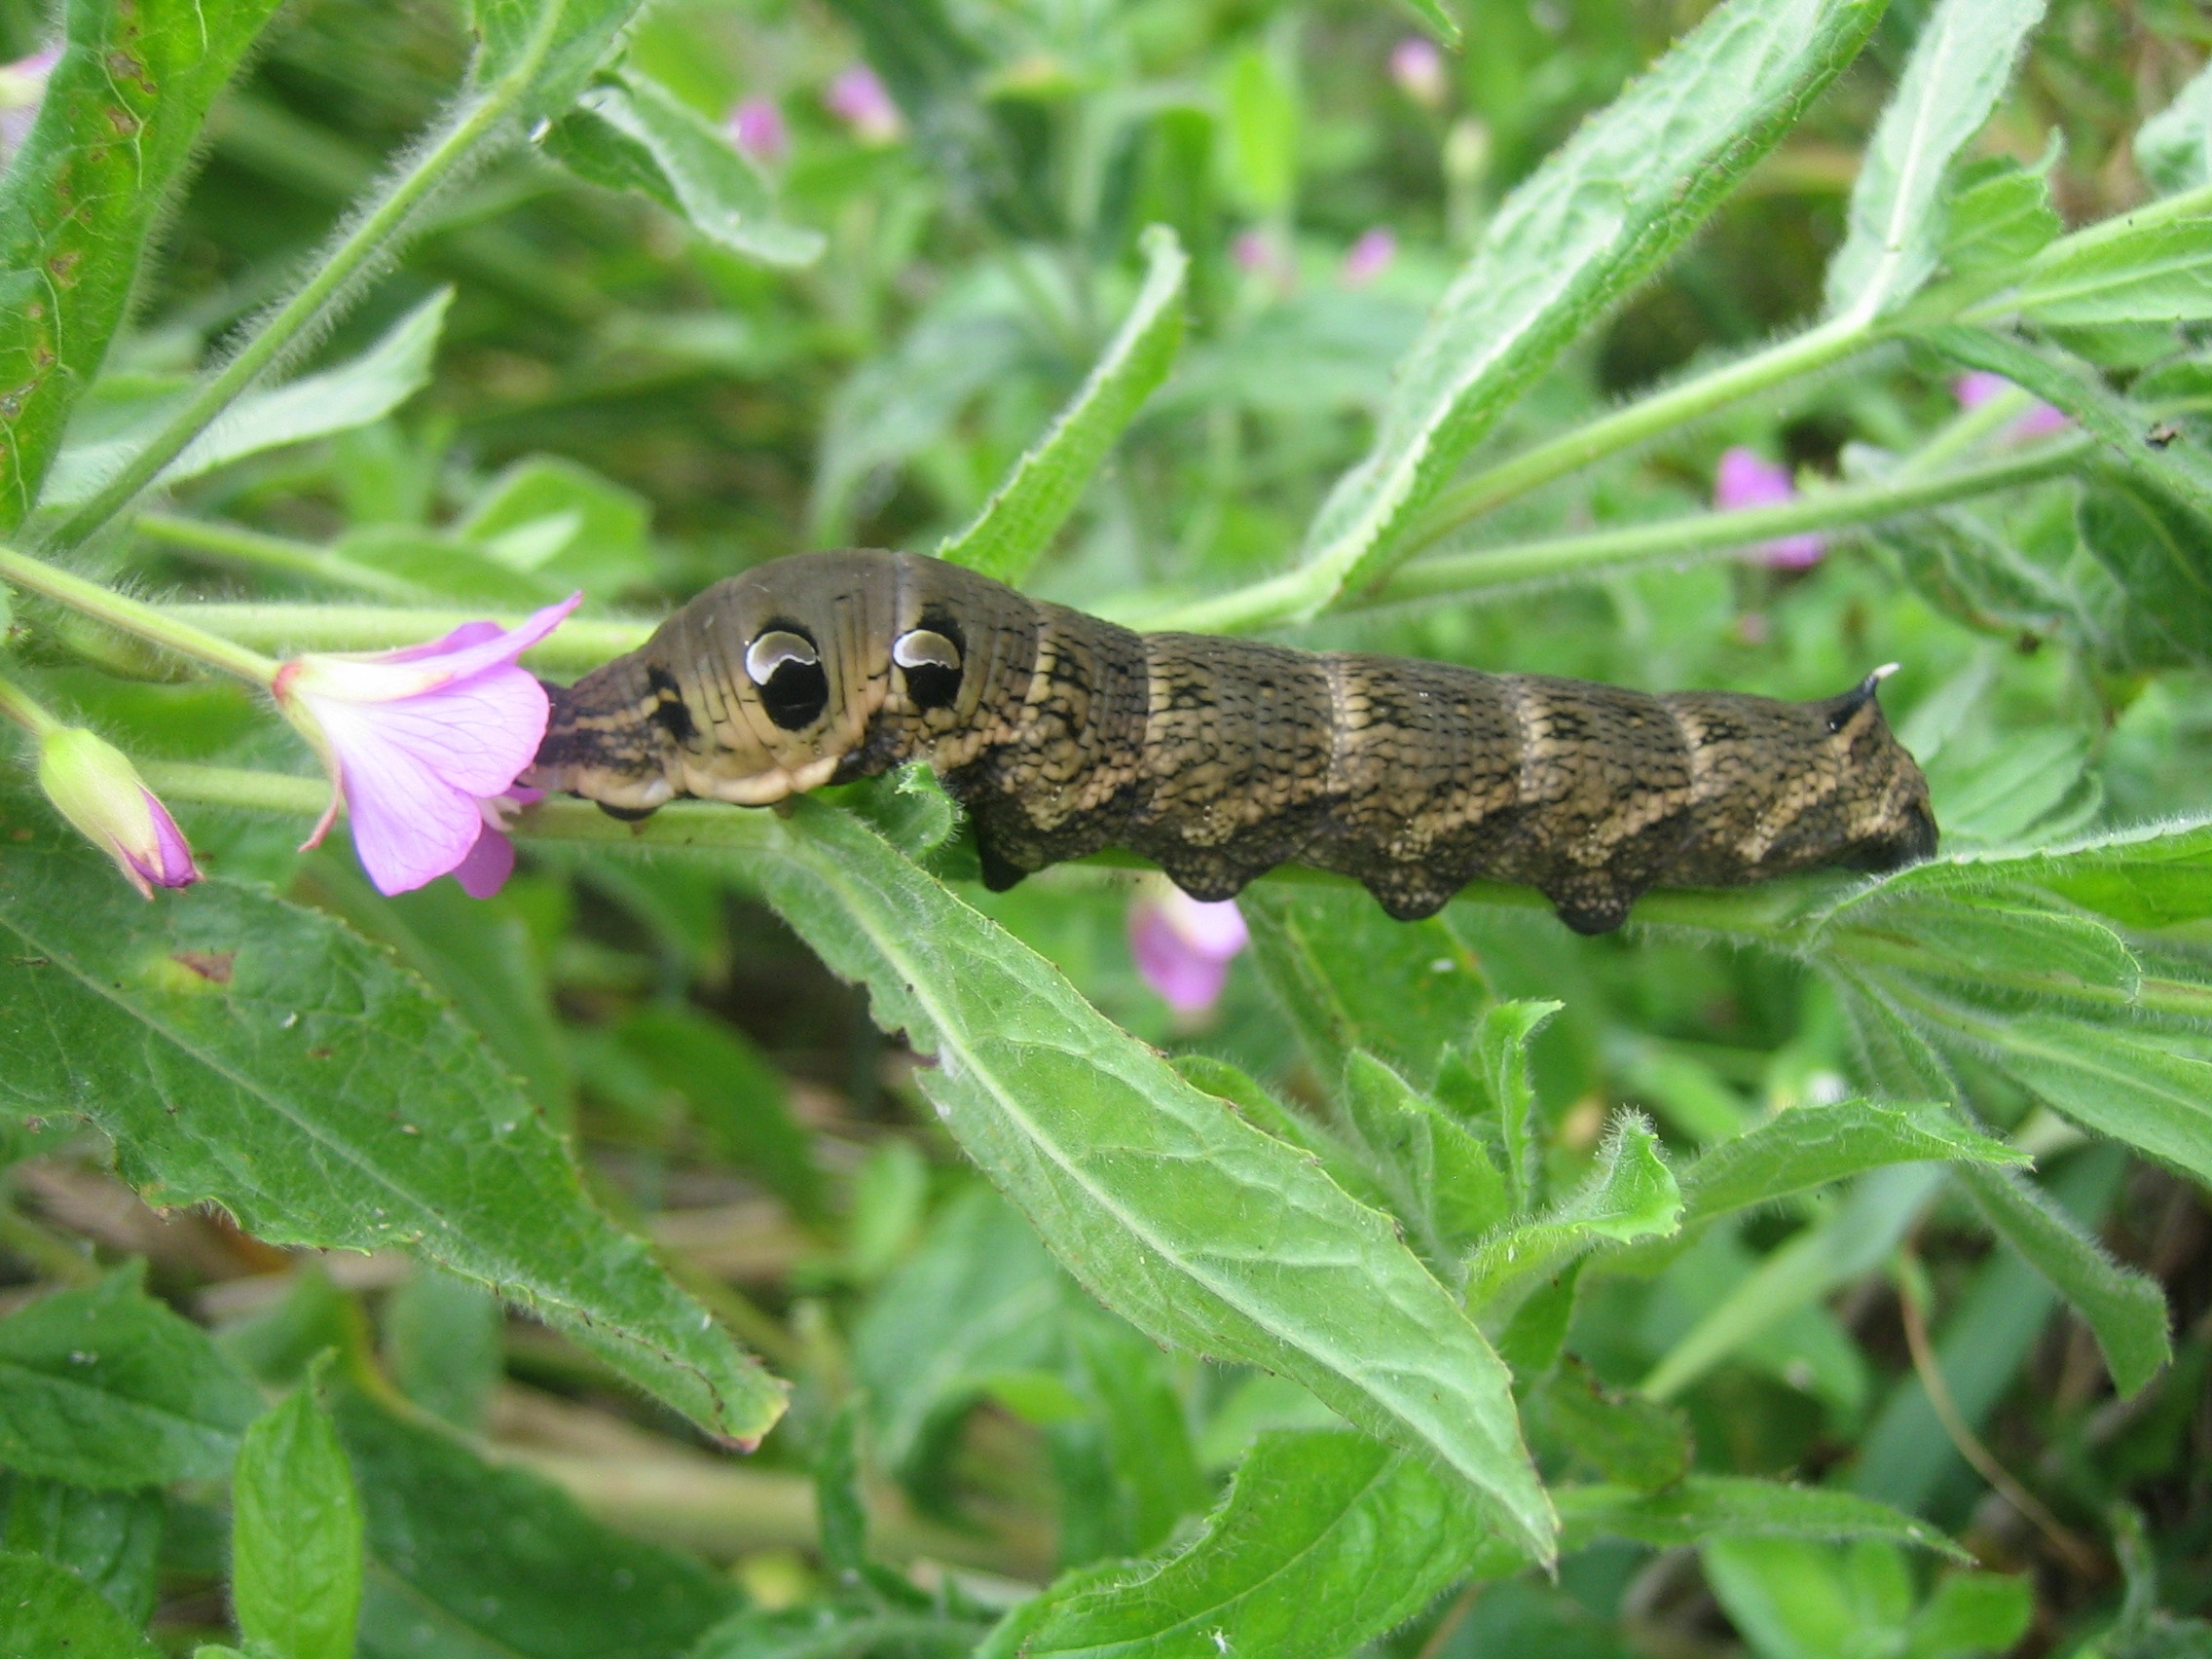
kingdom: Animalia
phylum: Arthropoda
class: Insecta
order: Lepidoptera
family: Sphingidae
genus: Deilephila
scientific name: Deilephila elpenor
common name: Dueurtsværmer
